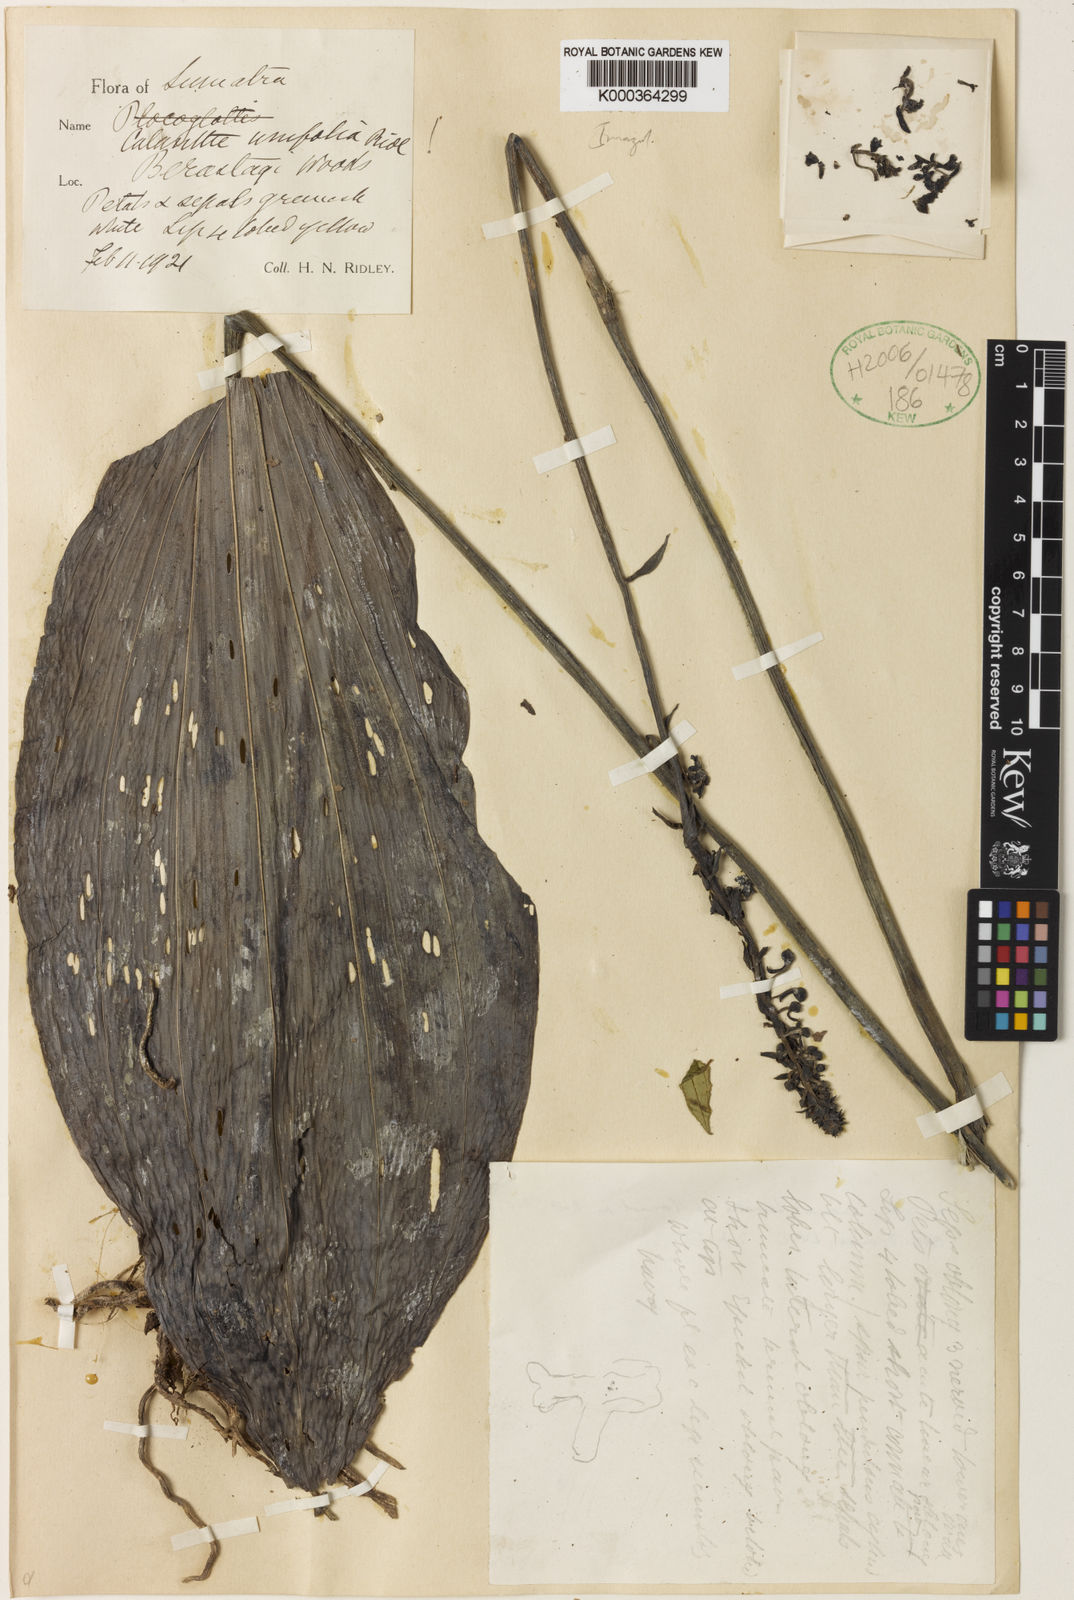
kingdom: Plantae
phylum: Tracheophyta
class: Liliopsida
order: Asparagales
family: Orchidaceae
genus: Calanthe
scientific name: Calanthe unifolia
